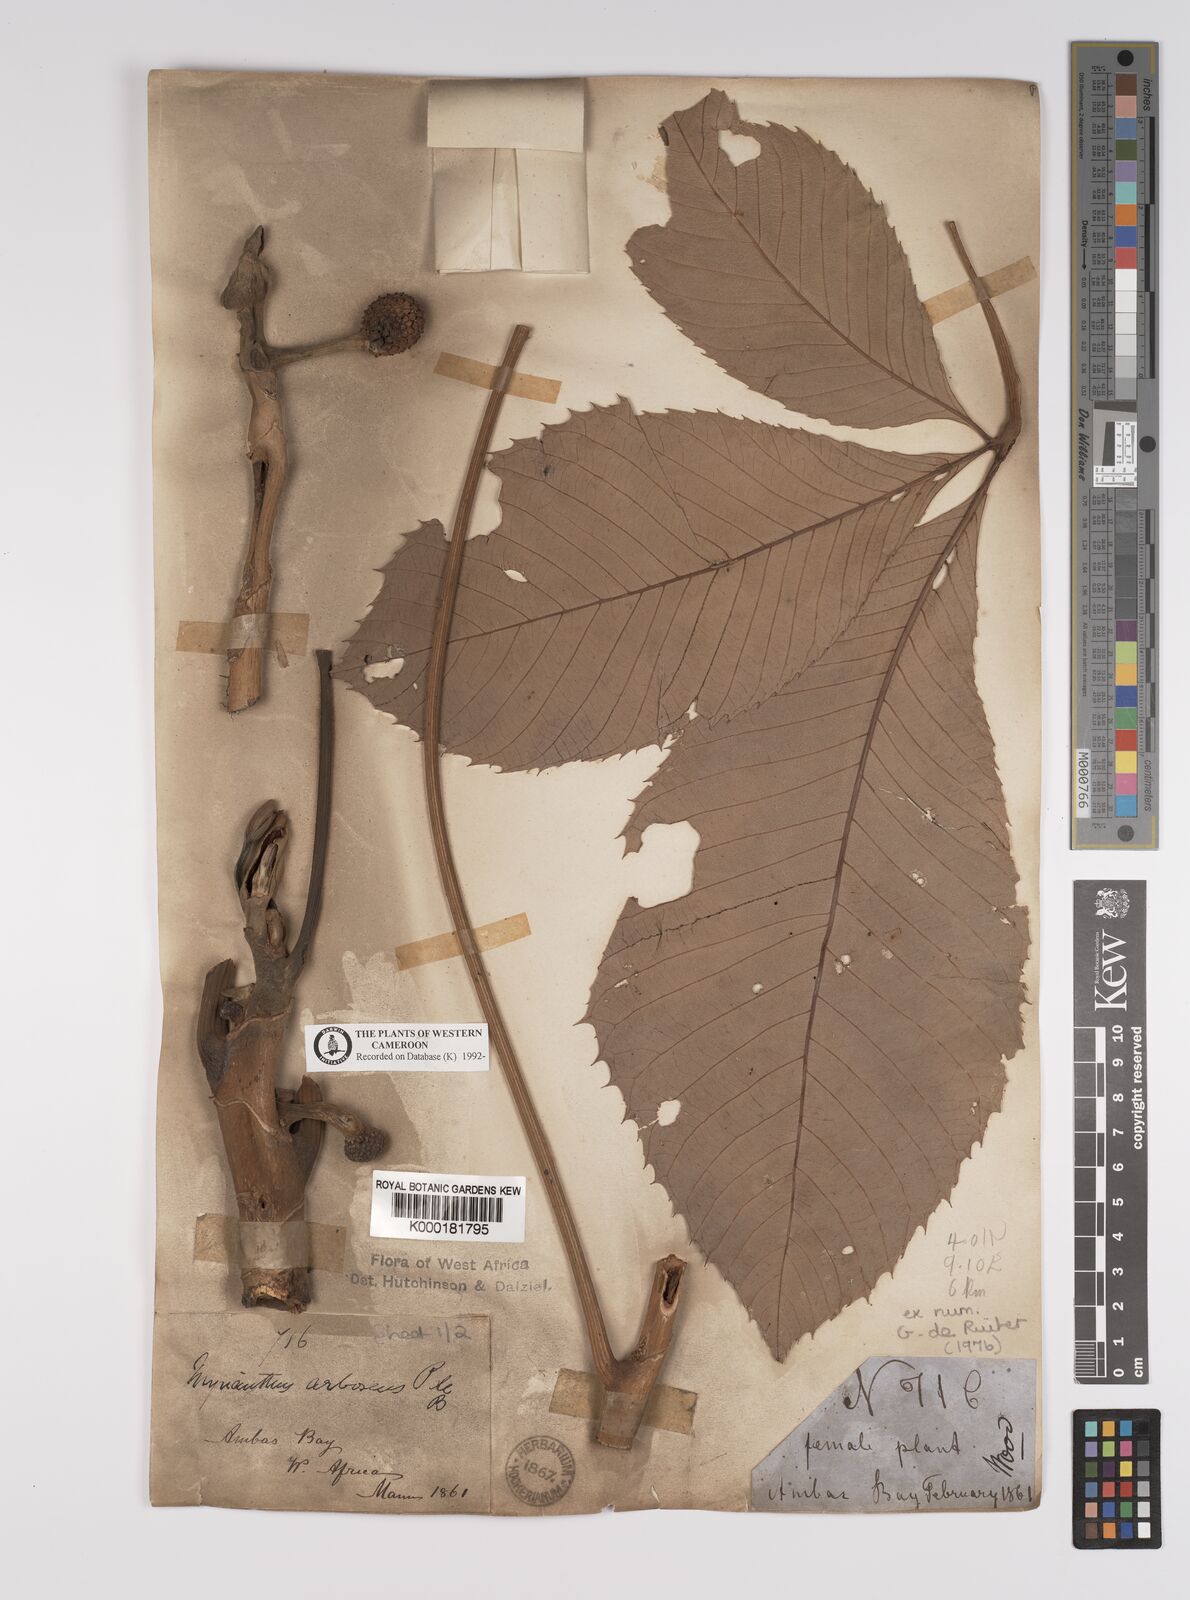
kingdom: Plantae
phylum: Tracheophyta
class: Magnoliopsida
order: Rosales
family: Urticaceae
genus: Myrianthus
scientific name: Myrianthus arboreus
